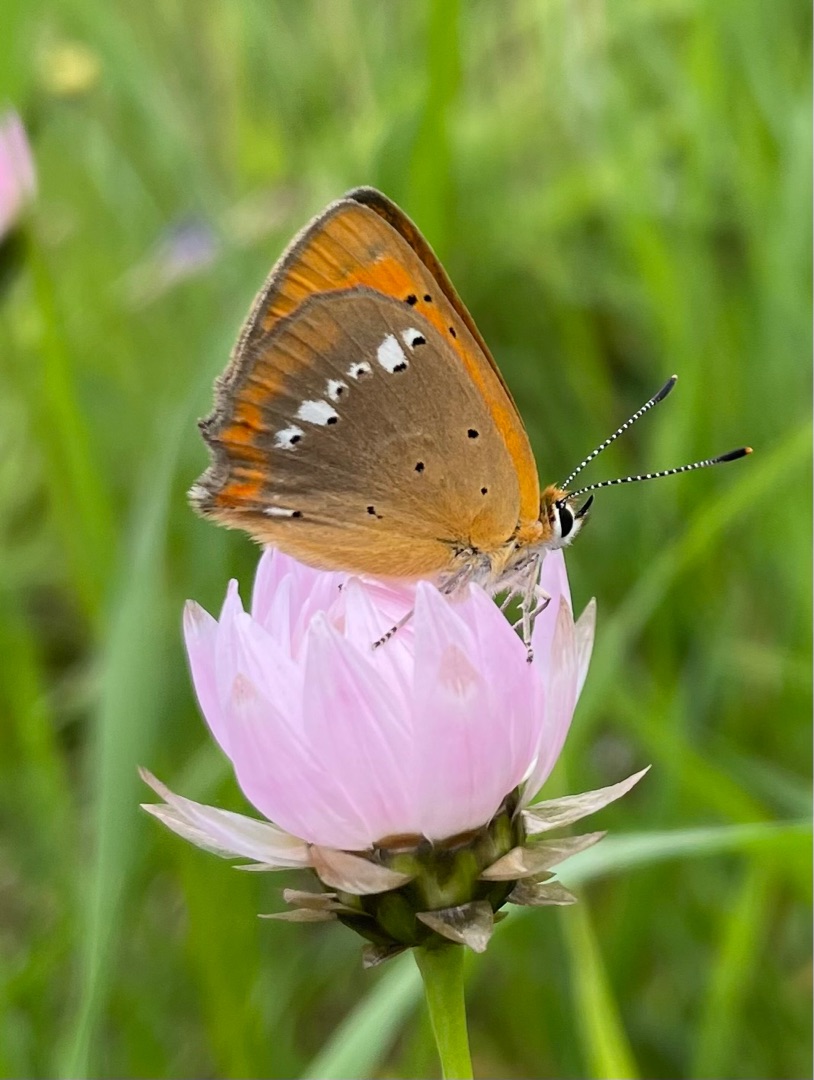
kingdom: Animalia
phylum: Arthropoda
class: Insecta
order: Lepidoptera
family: Lycaenidae
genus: Lycaena
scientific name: Lycaena virgaureae
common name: Dukatsommerfugl
